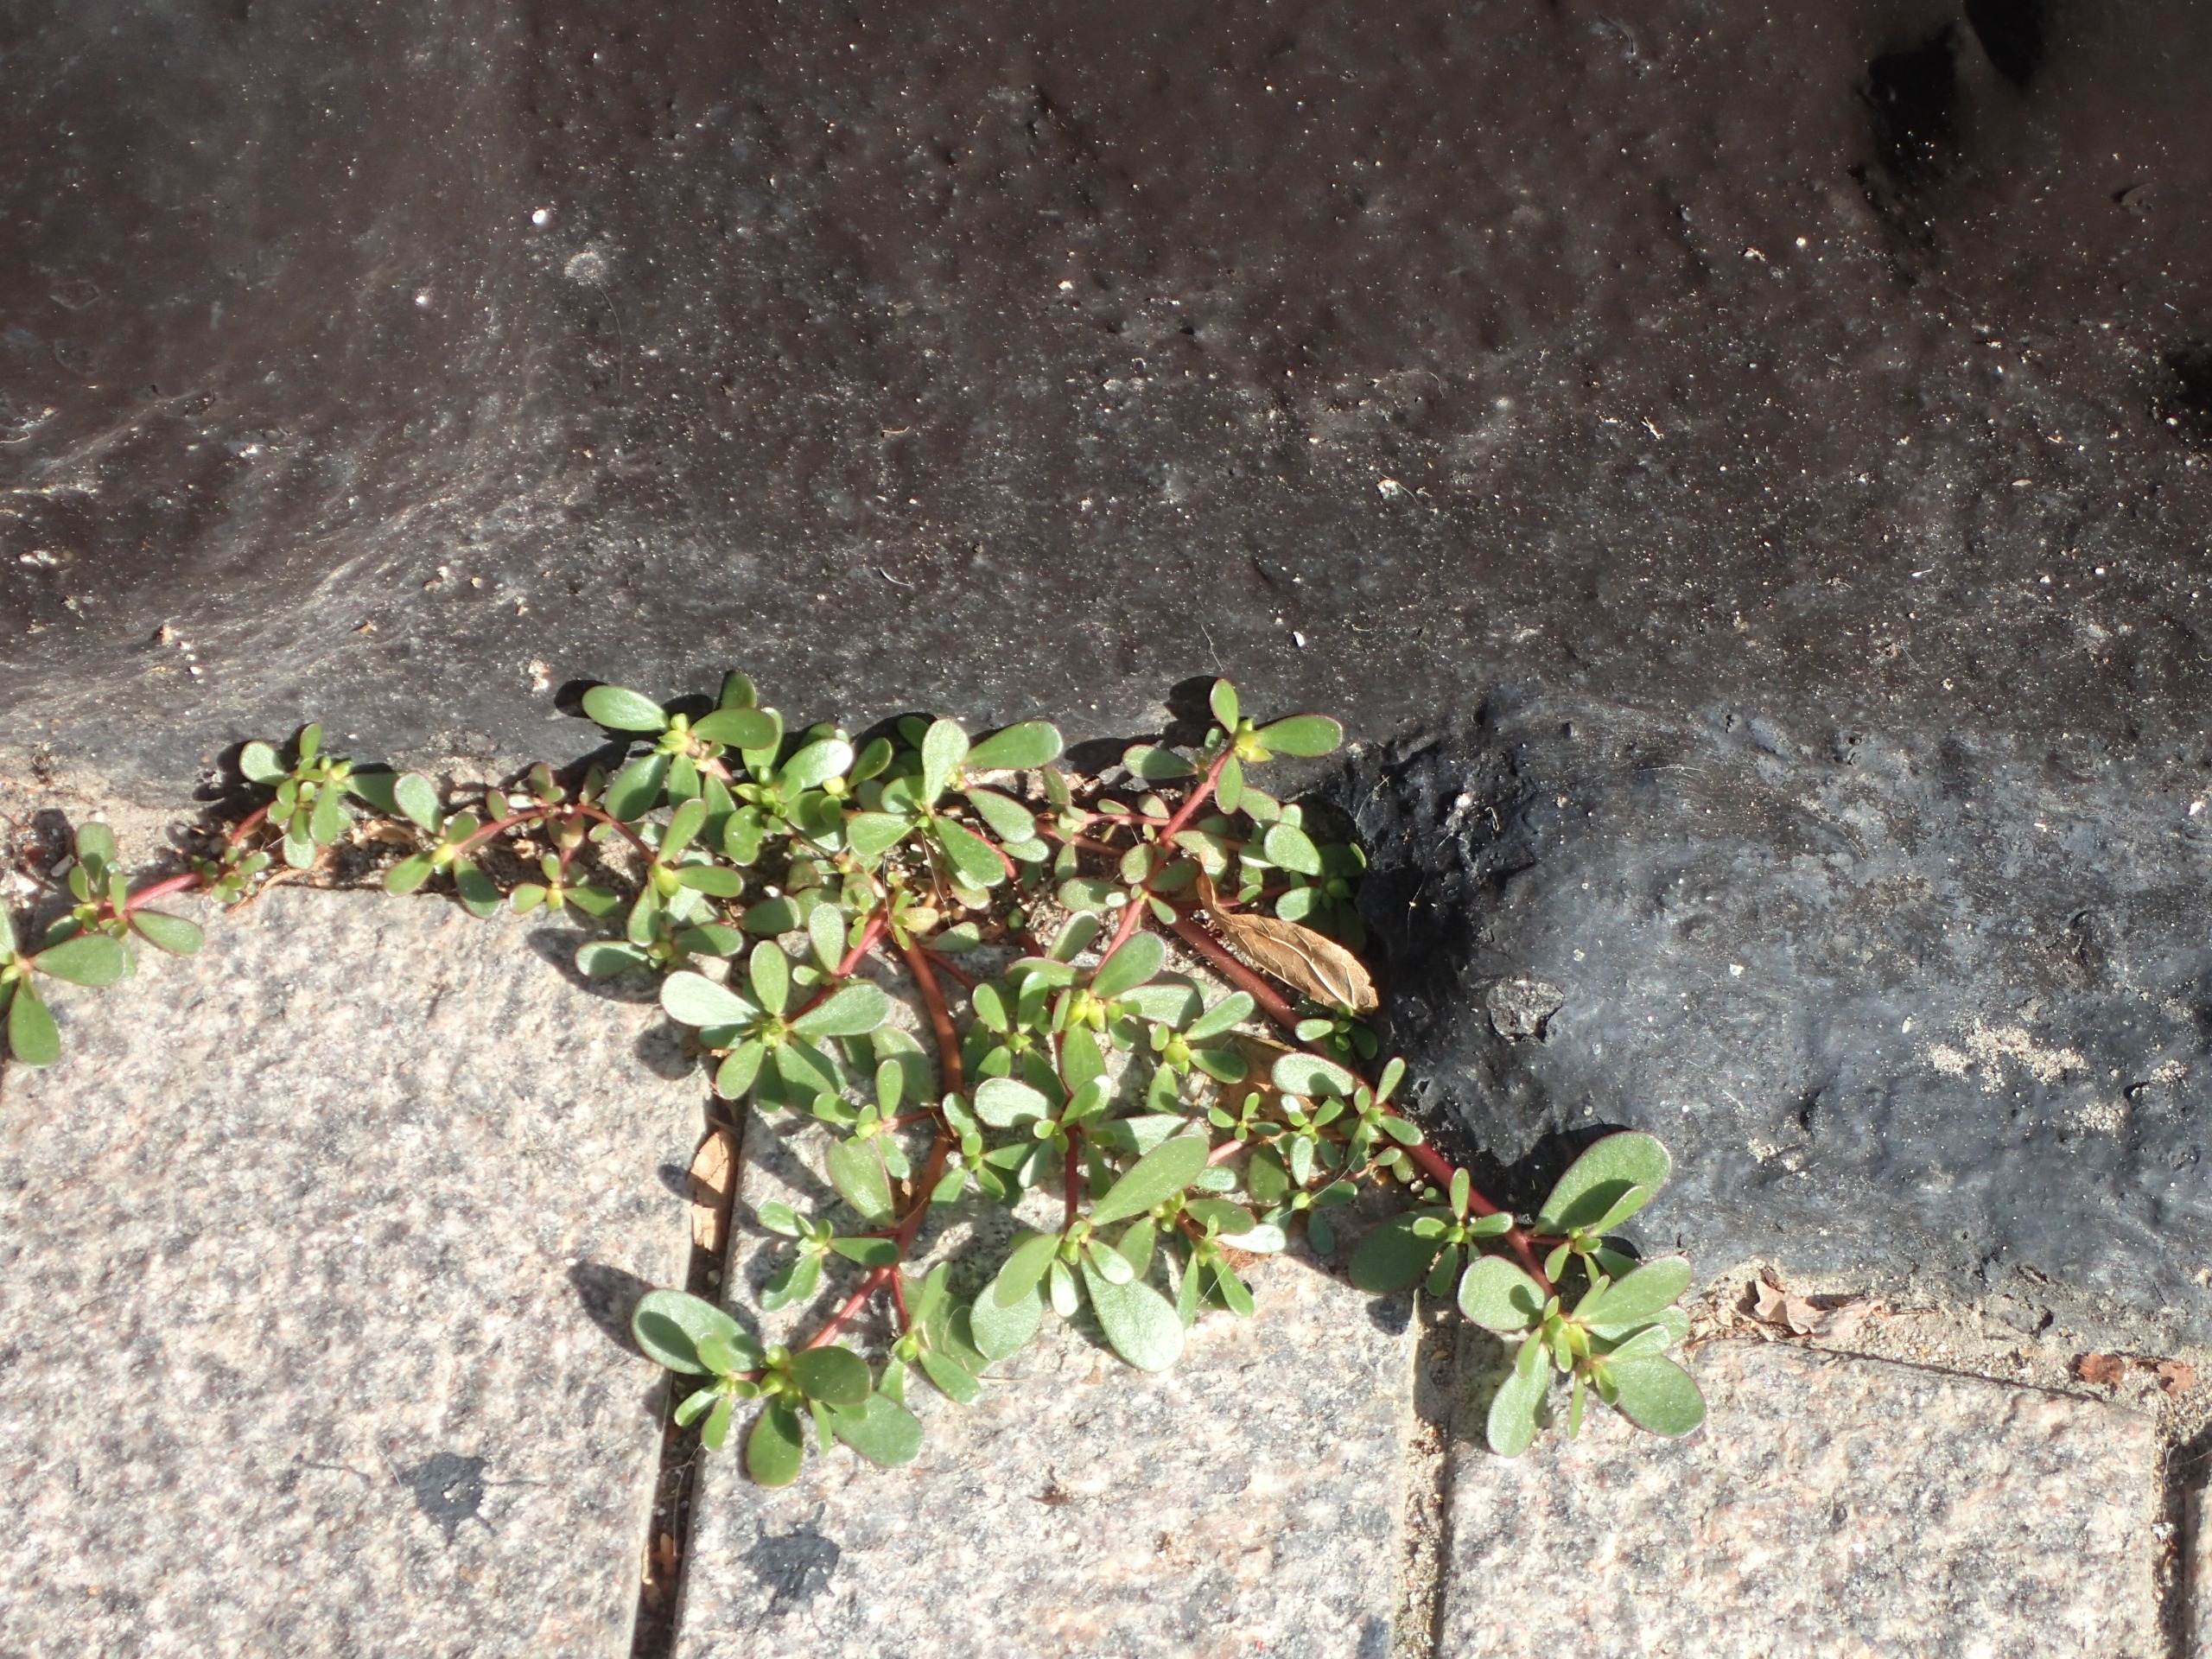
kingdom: Plantae
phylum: Tracheophyta
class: Magnoliopsida
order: Caryophyllales
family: Portulacaceae
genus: Portulaca
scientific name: Portulaca oleracea
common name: Portulak
